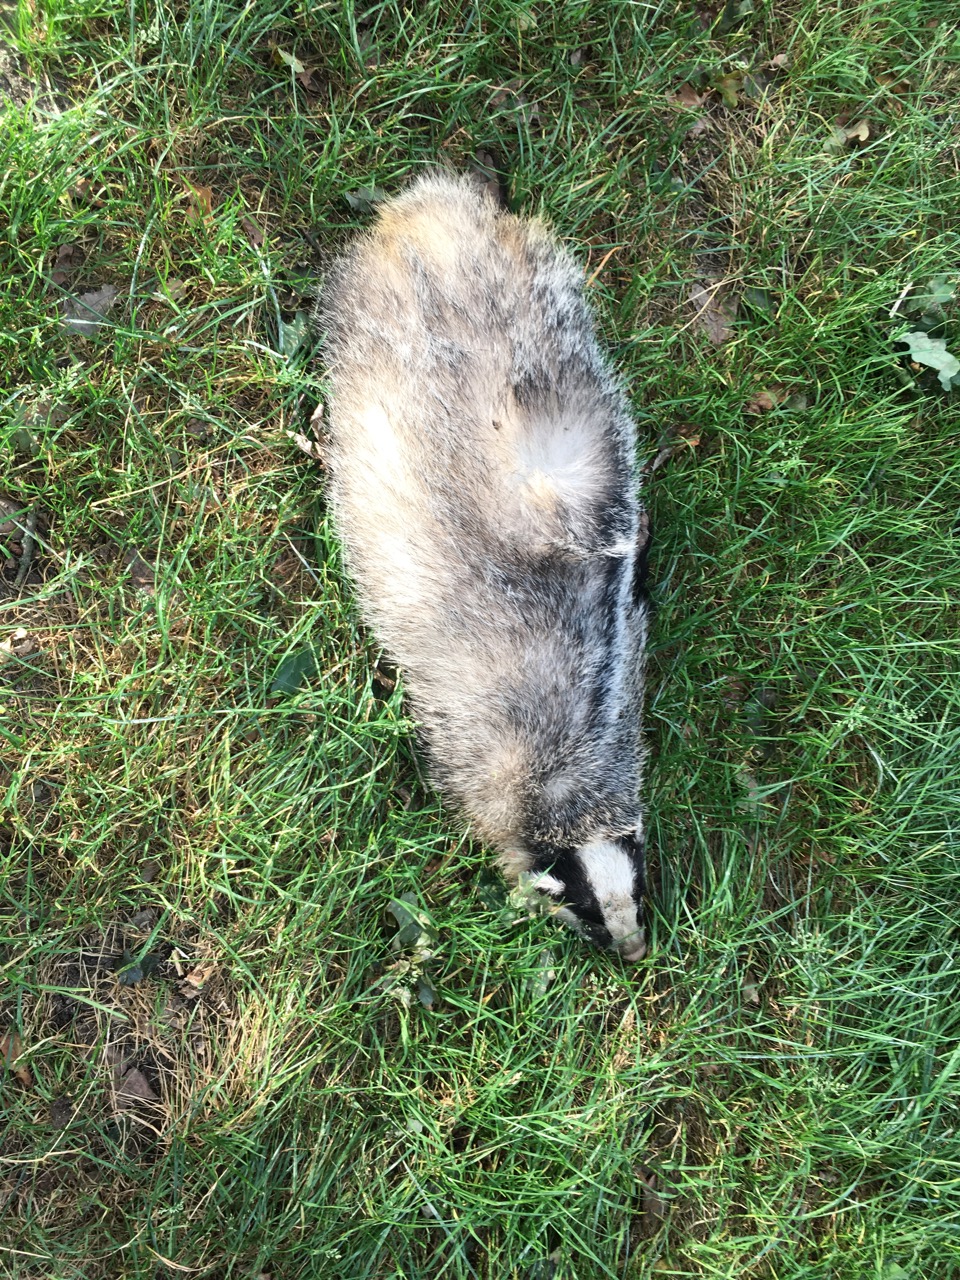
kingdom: Animalia
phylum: Chordata
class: Mammalia
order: Carnivora
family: Mustelidae
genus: Meles
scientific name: Meles meles
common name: Eurasian badger
